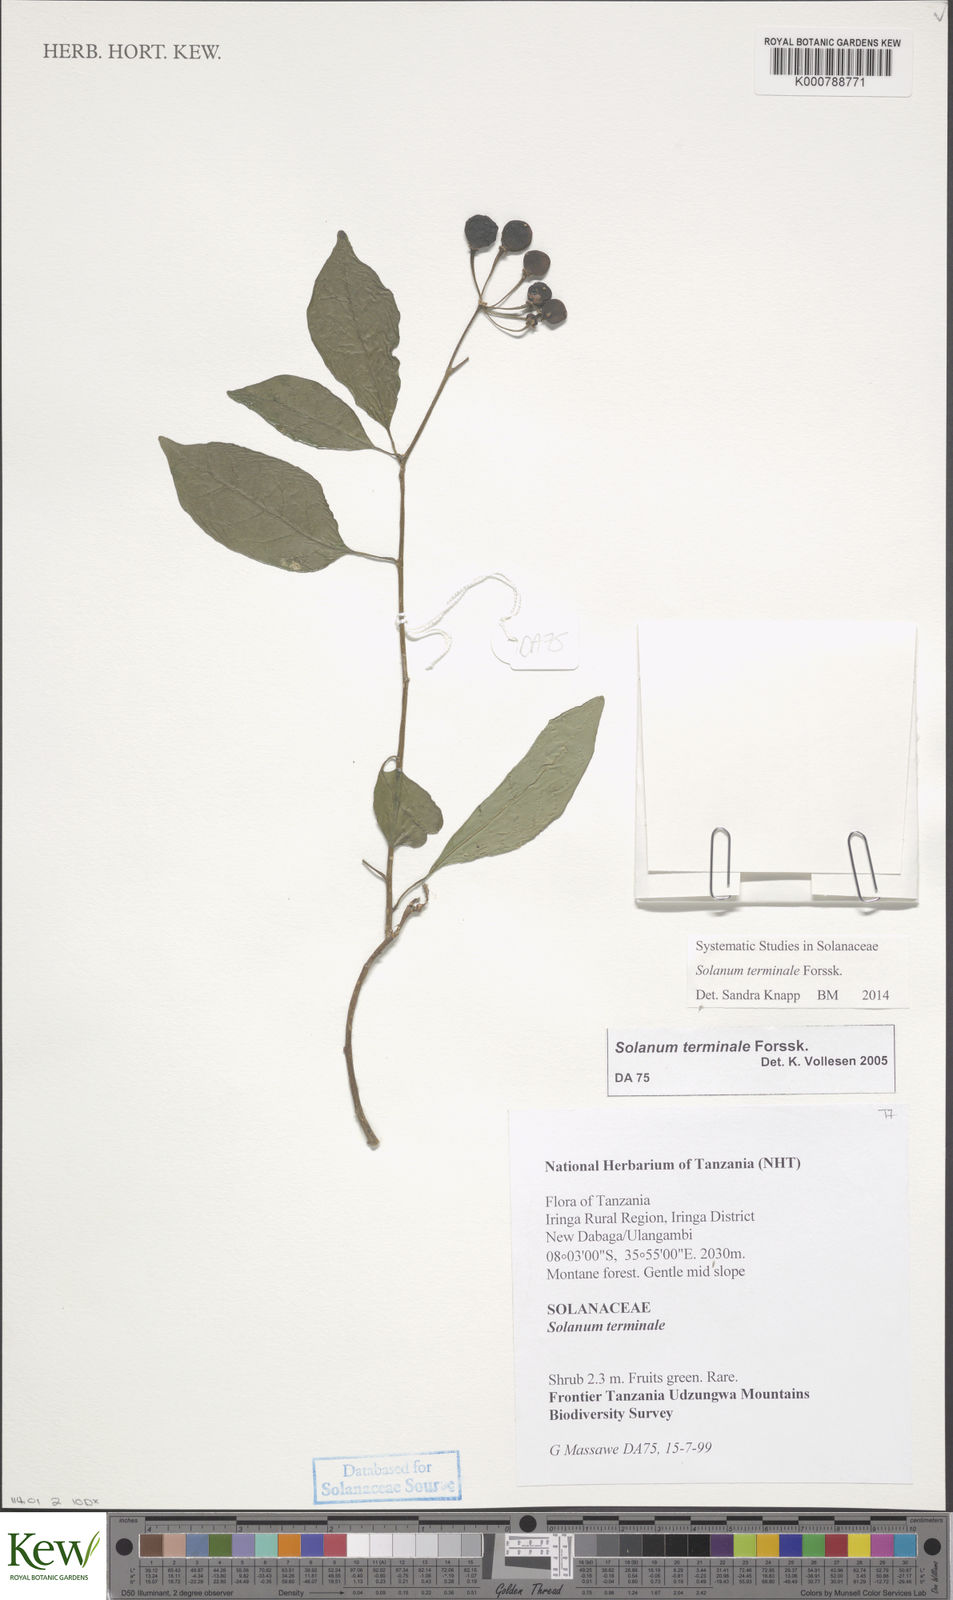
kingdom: Plantae
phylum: Tracheophyta
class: Magnoliopsida
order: Solanales
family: Solanaceae
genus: Solanum
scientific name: Solanum terminale
